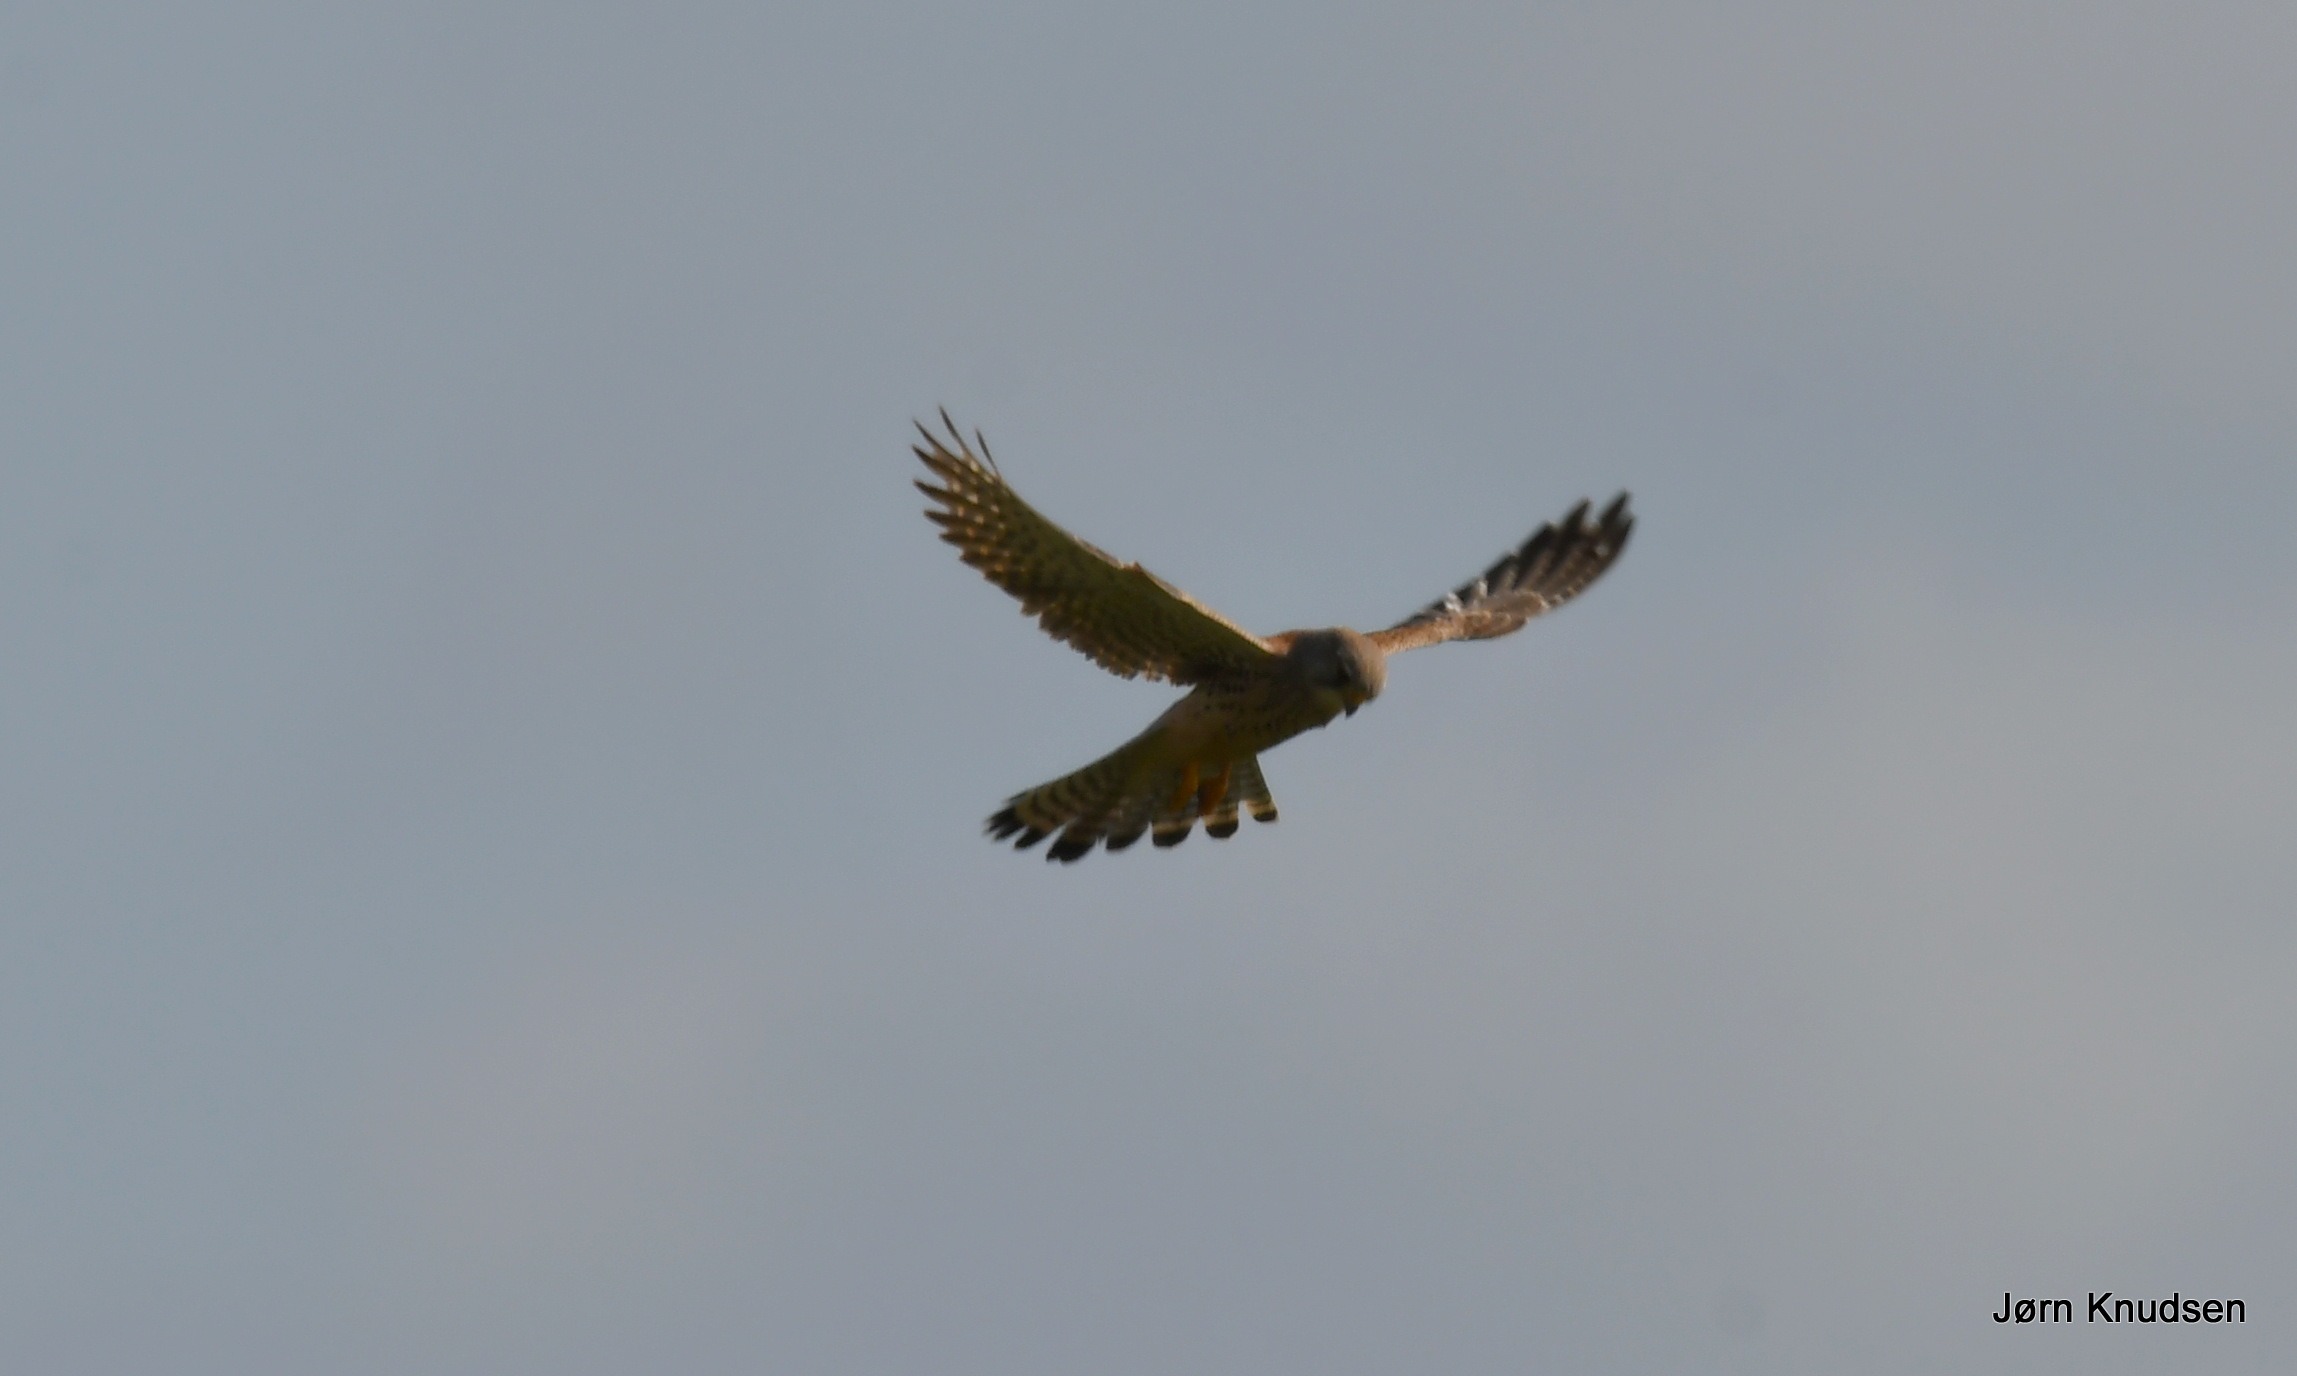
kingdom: Animalia
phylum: Chordata
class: Aves
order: Falconiformes
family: Falconidae
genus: Falco
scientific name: Falco tinnunculus
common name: Tårnfalk
